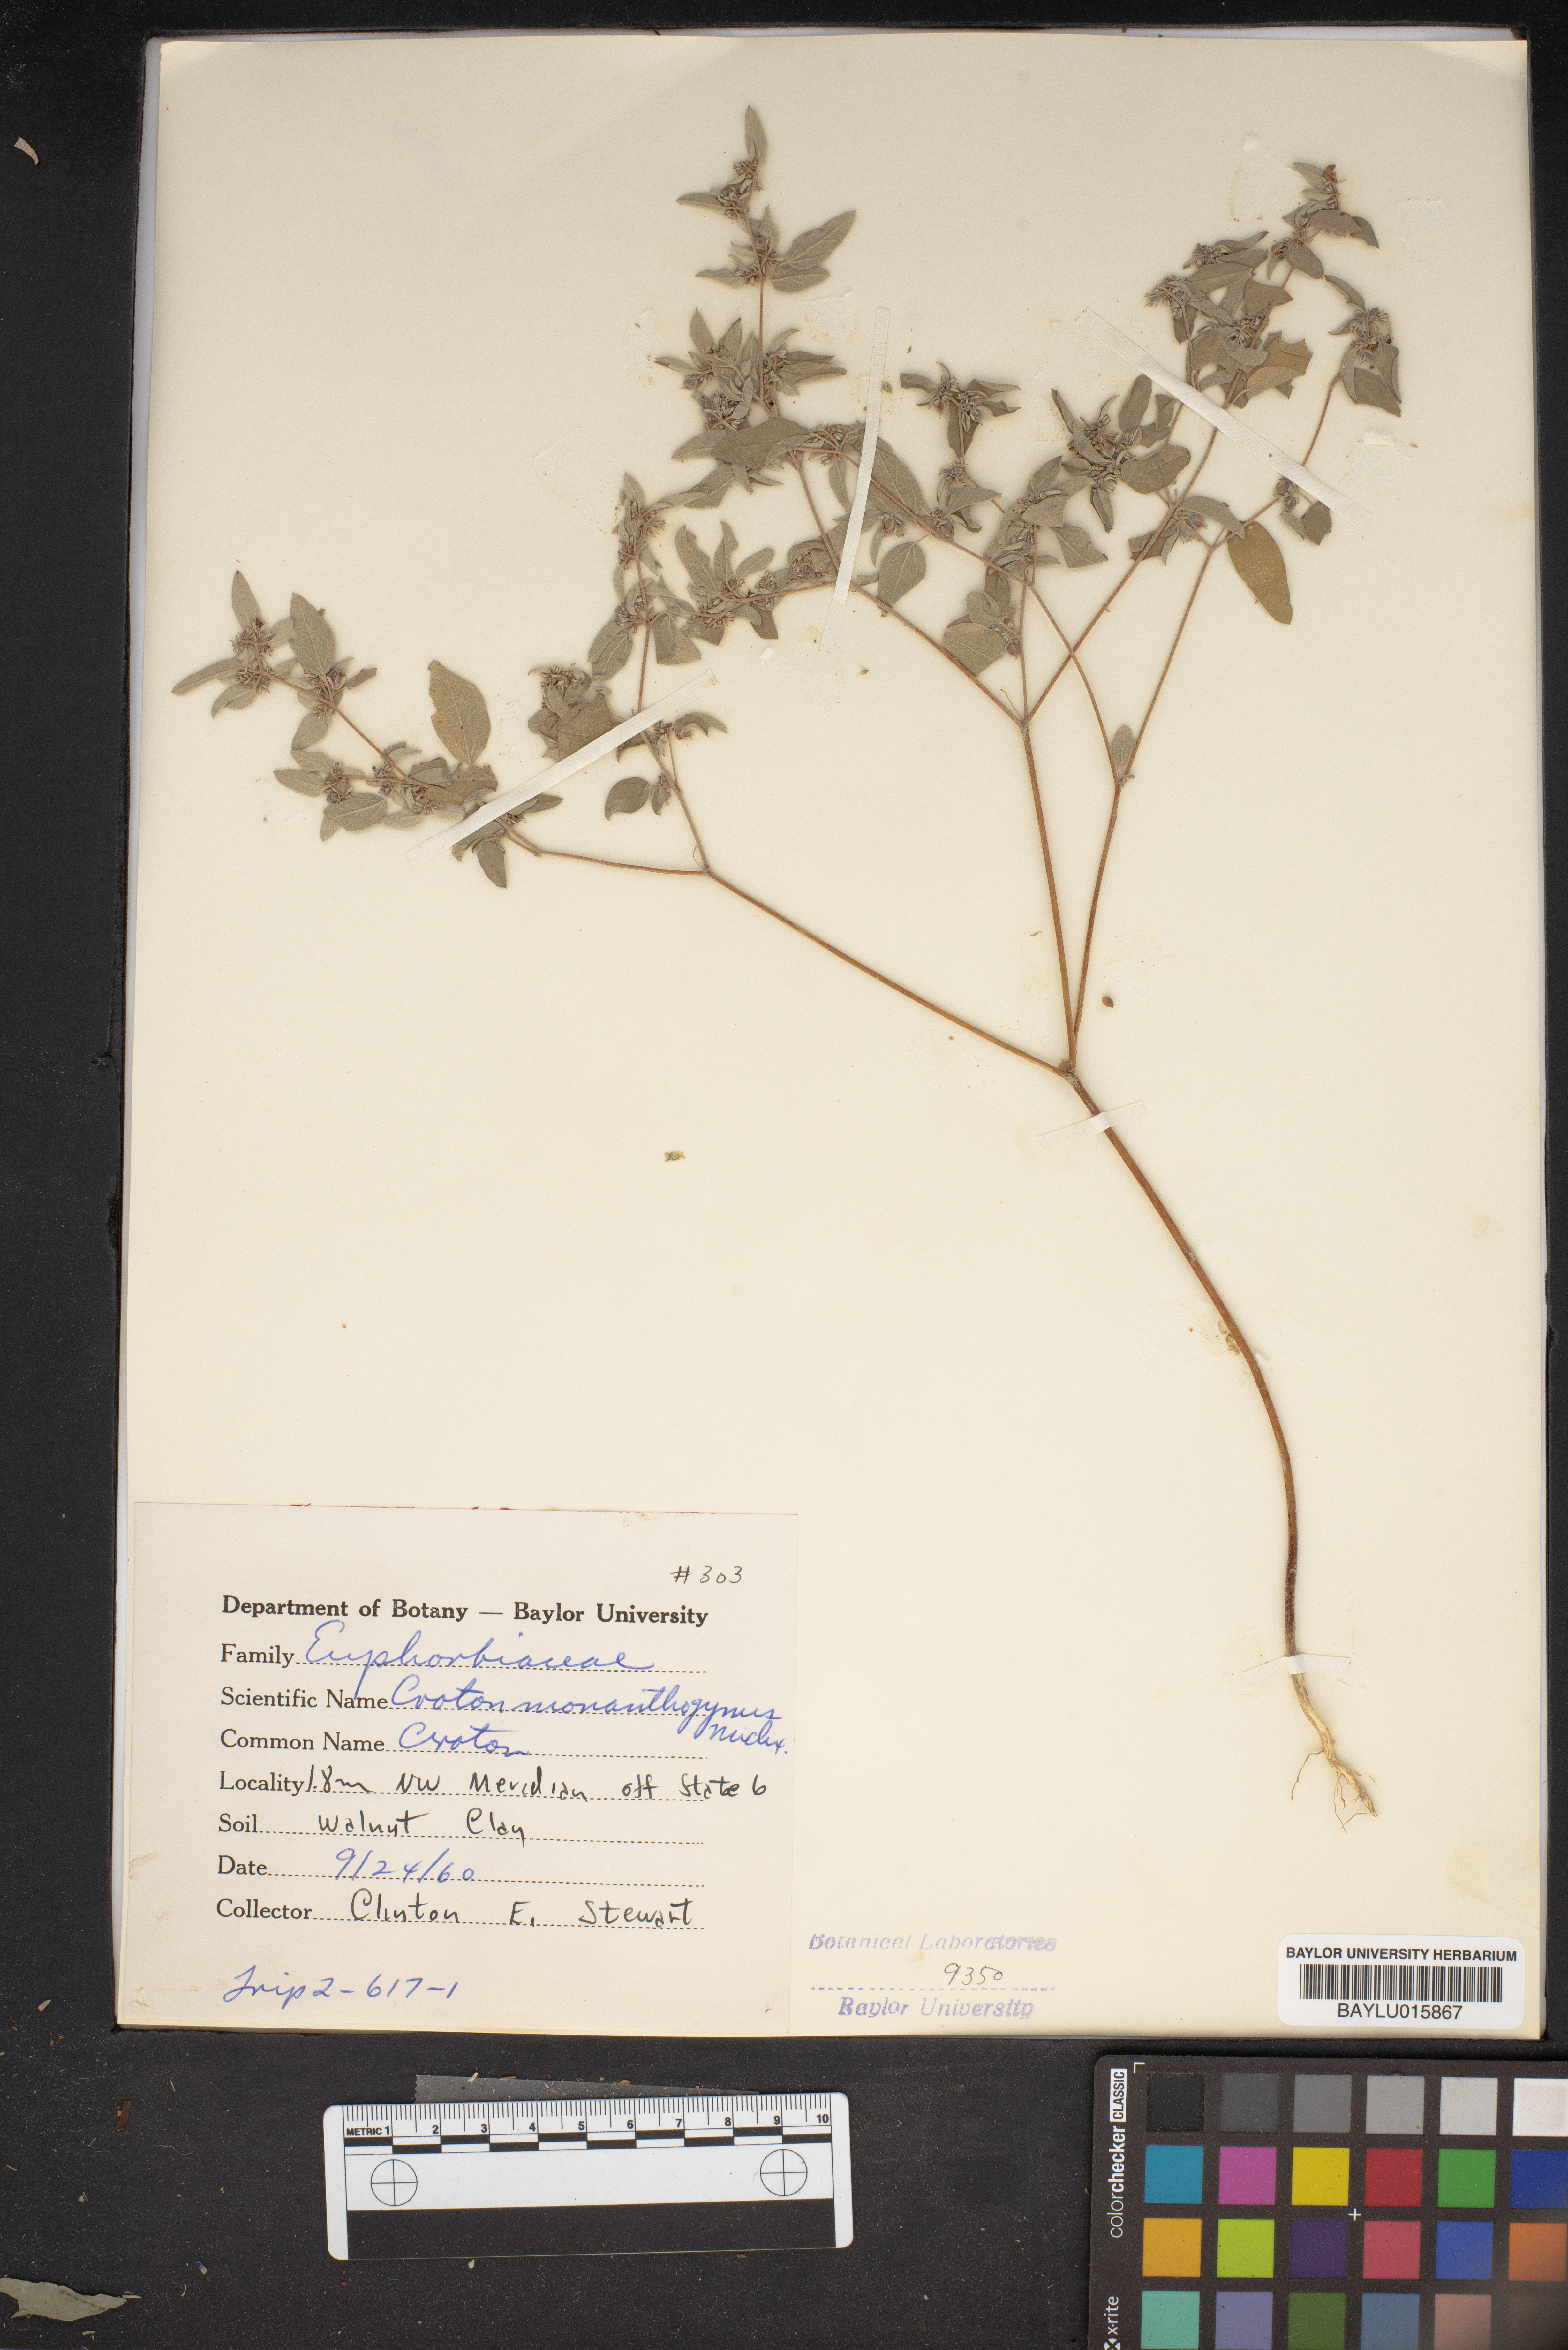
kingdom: Plantae
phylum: Tracheophyta
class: Magnoliopsida
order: Malpighiales
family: Euphorbiaceae
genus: Croton
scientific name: Croton monanthogynus
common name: One-seed croton
